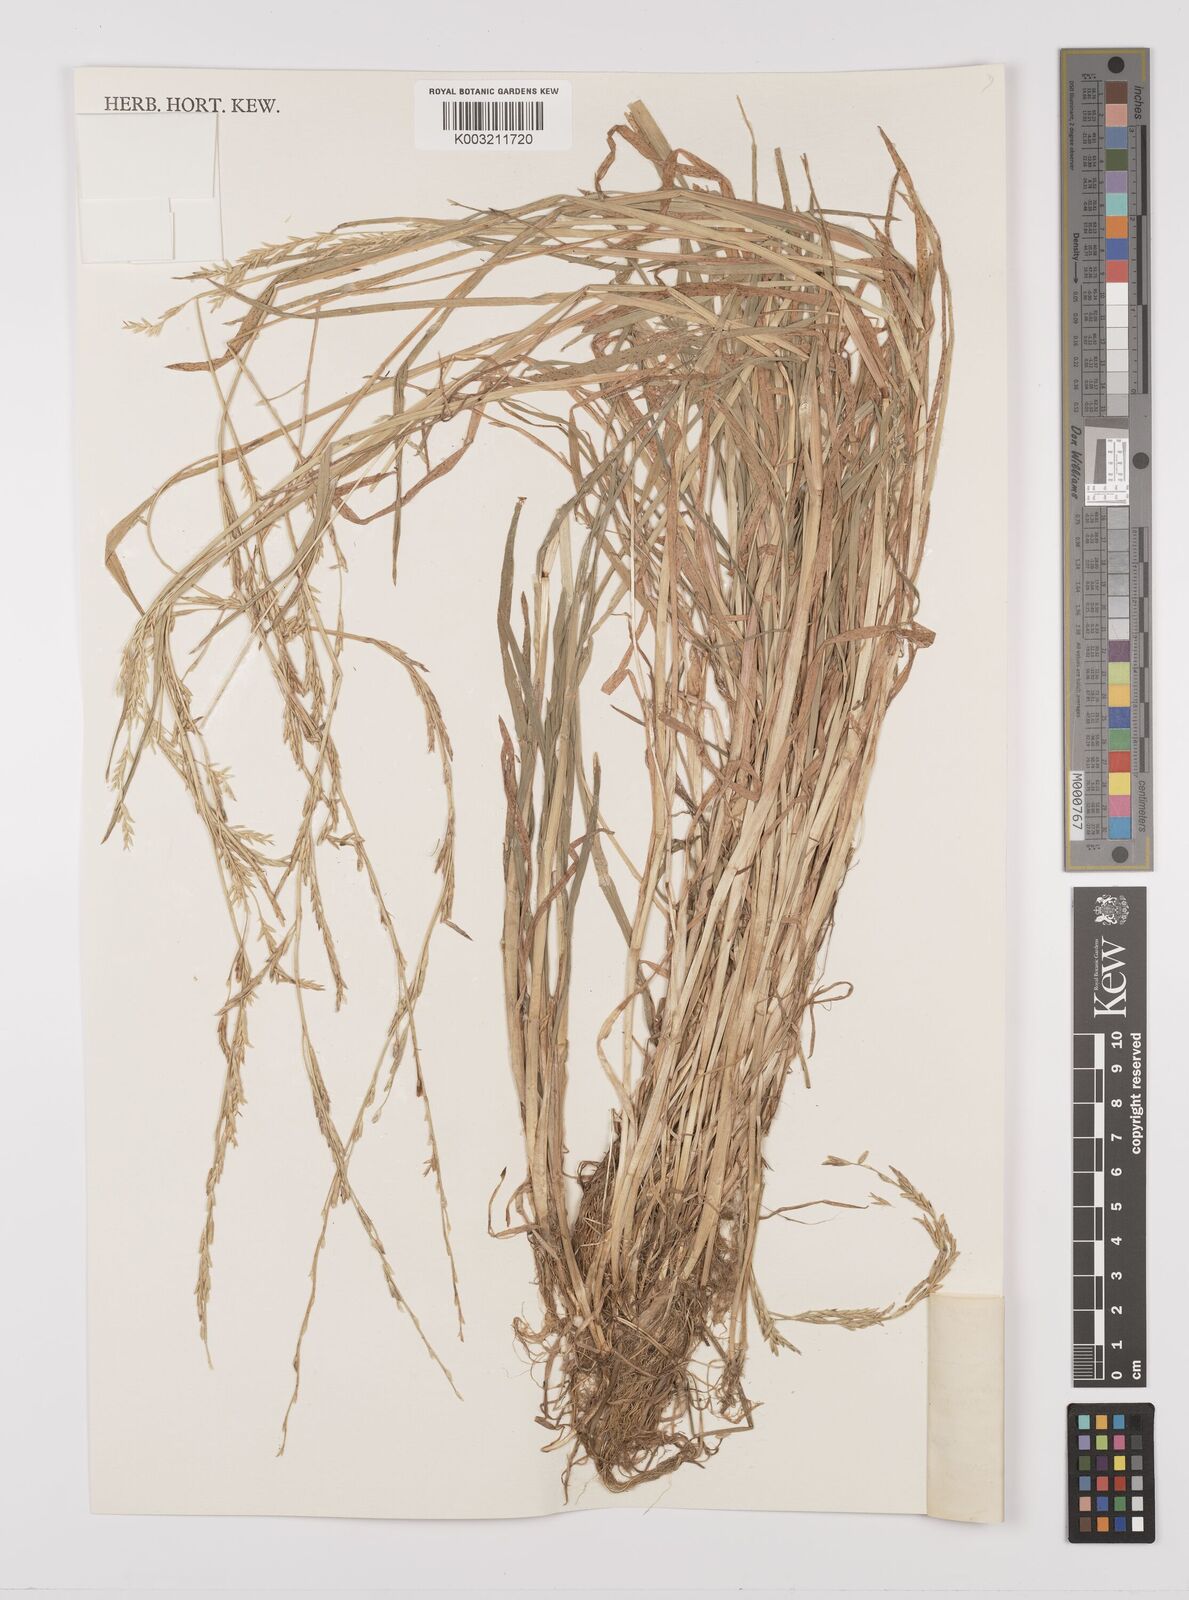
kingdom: Plantae
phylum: Tracheophyta
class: Liliopsida
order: Poales
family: Poaceae
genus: Glyceria
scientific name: Glyceria fluitans
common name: Floating sweet-grass
